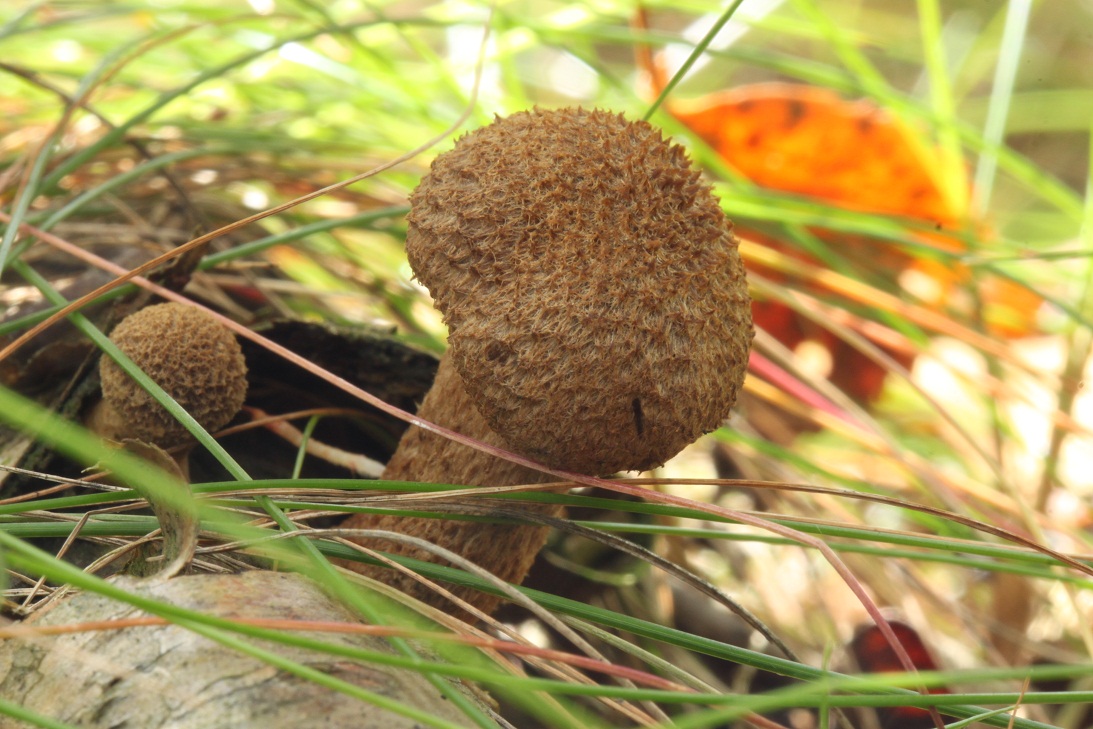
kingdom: Fungi
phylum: Basidiomycota
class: Agaricomycetes
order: Agaricales
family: Inocybaceae
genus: Inocybe
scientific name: Inocybe stellatospora
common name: spidsskællet trævlhat
